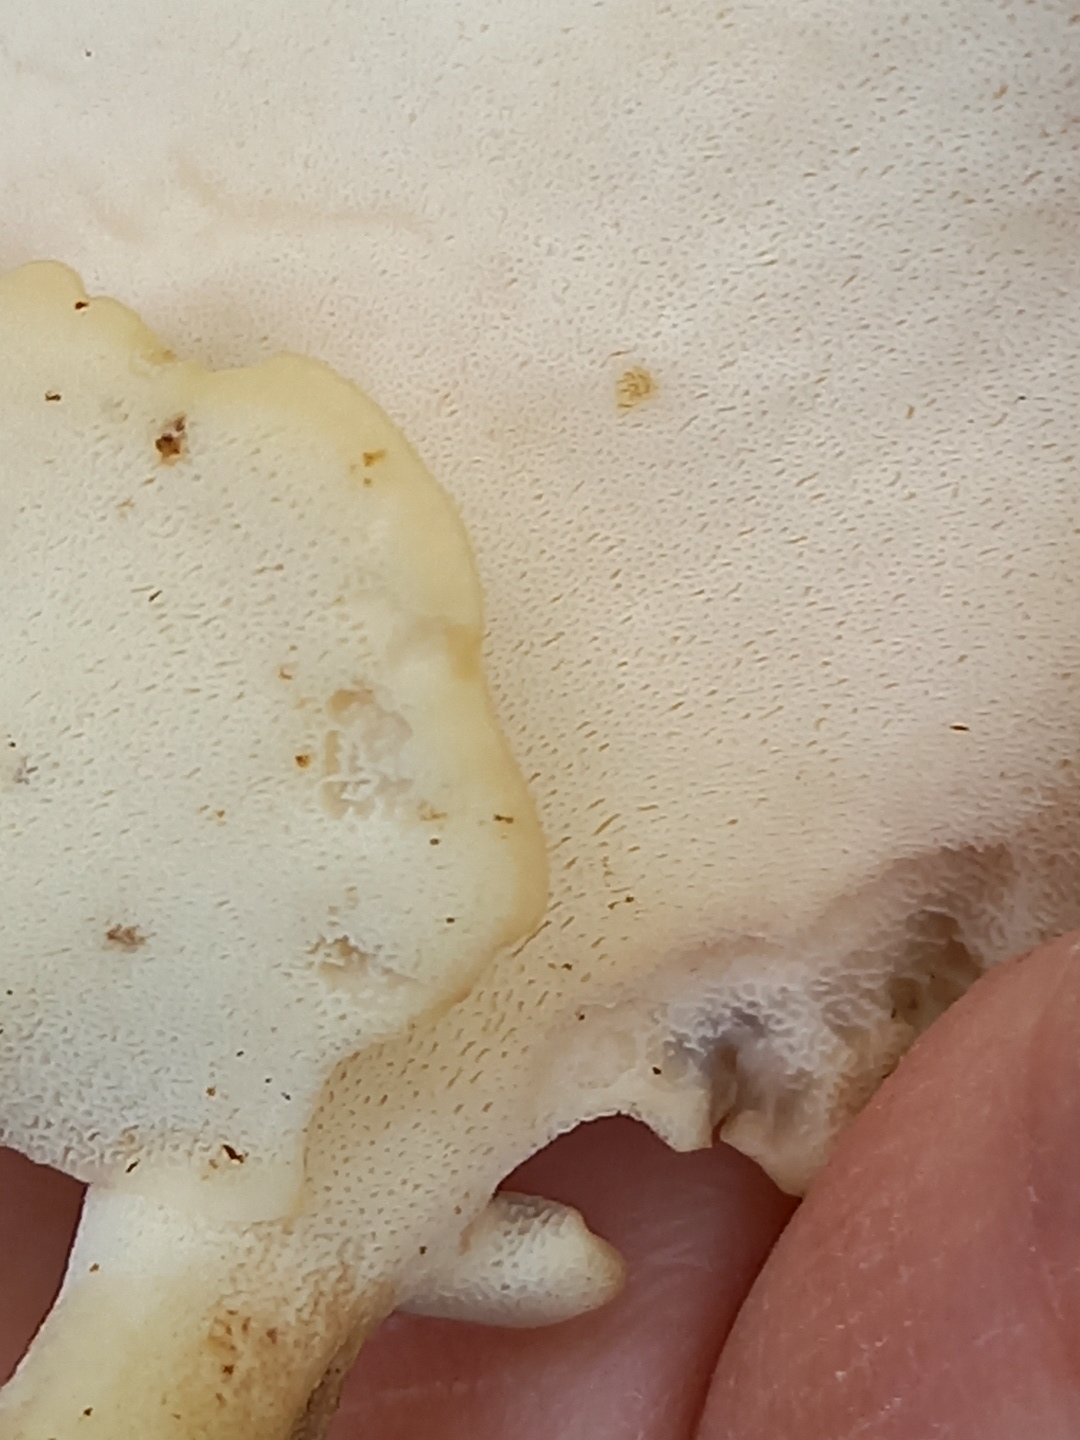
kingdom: Fungi
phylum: Basidiomycota
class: Agaricomycetes
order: Polyporales
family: Polyporaceae
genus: Lentinus
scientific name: Lentinus substrictus
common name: forårs-stilkporesvamp
